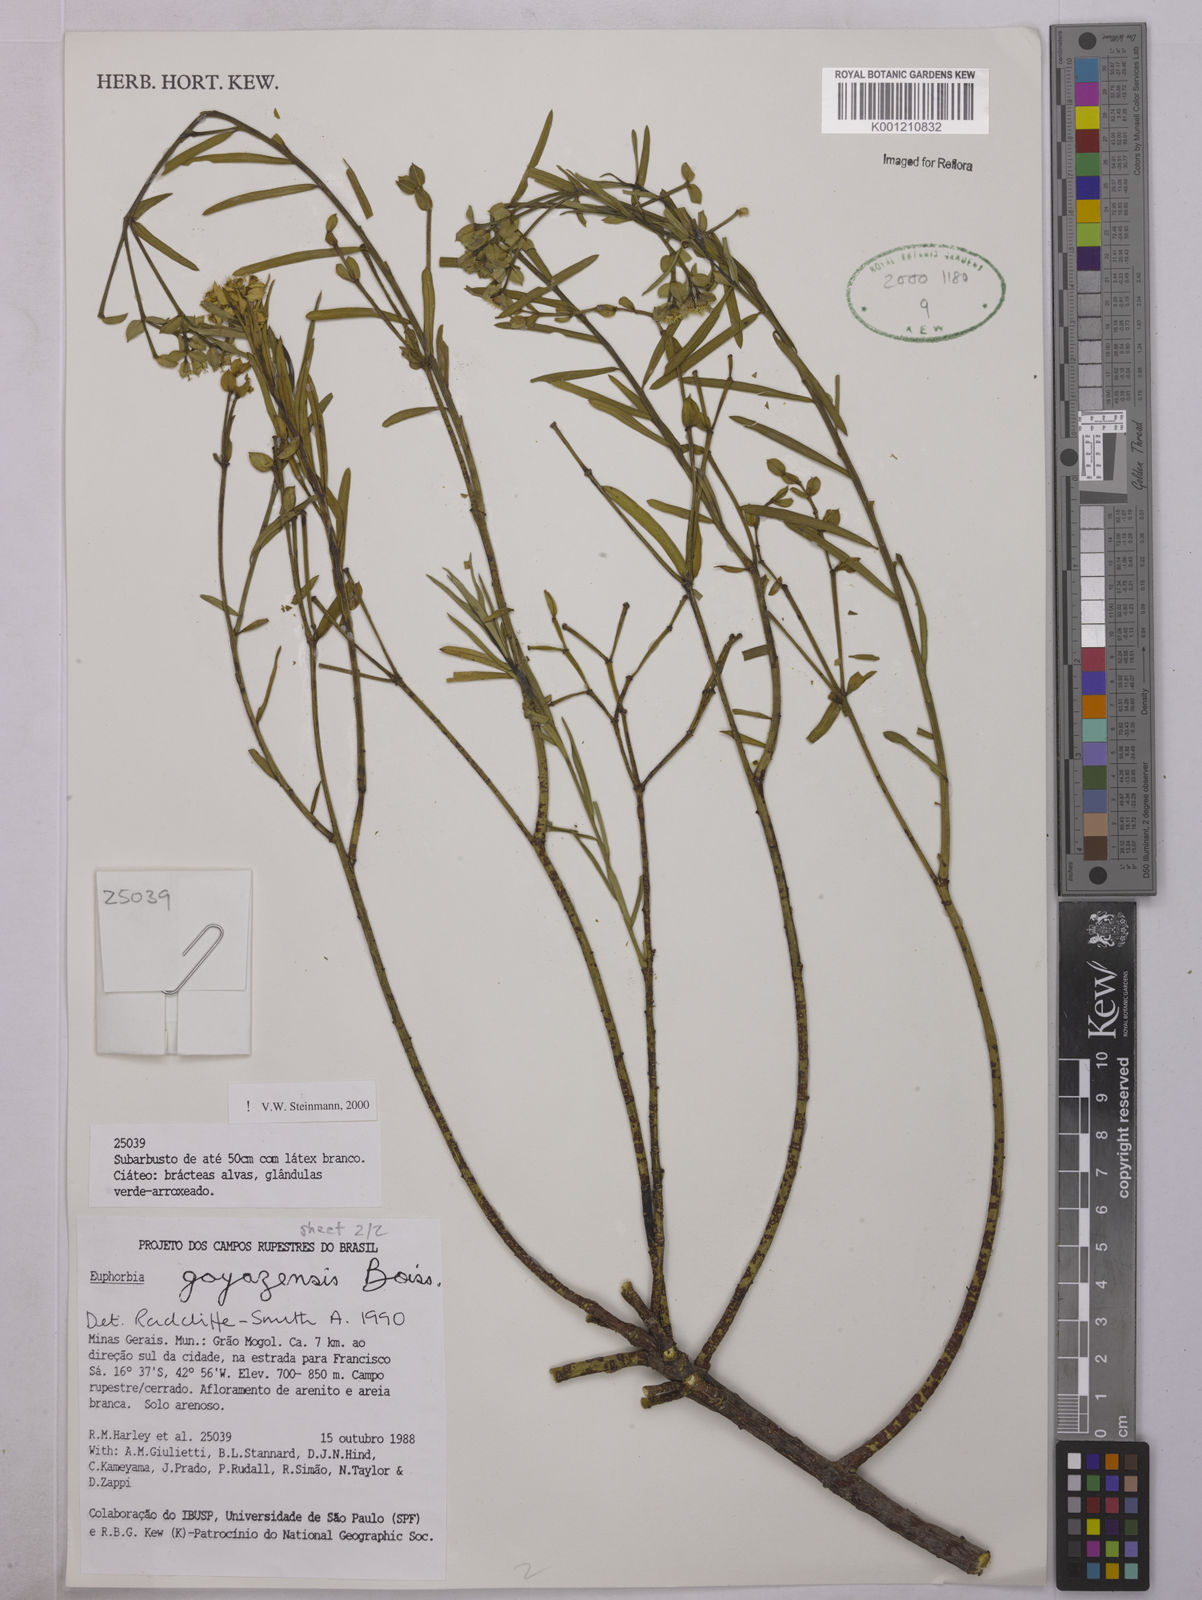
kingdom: Plantae
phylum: Tracheophyta
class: Magnoliopsida
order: Malpighiales
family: Euphorbiaceae
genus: Euphorbia
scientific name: Euphorbia goyazensis
